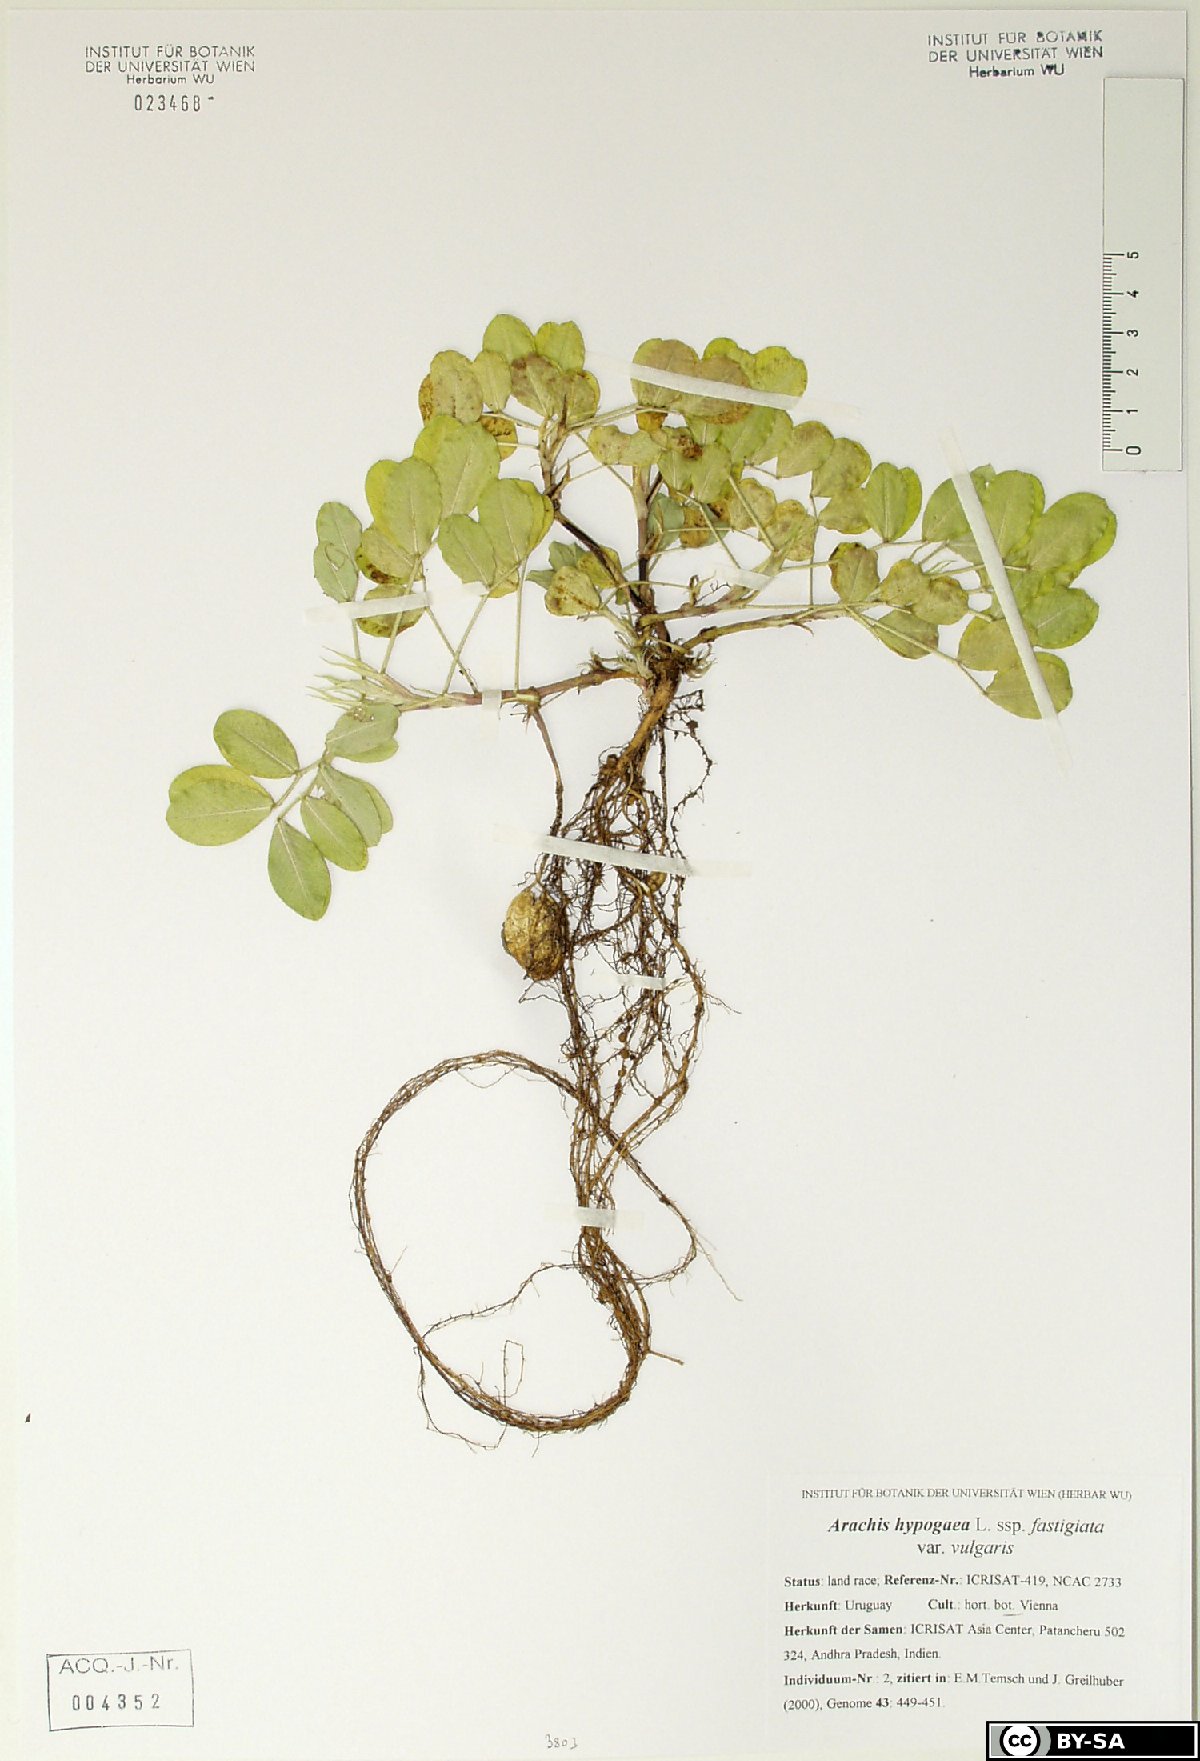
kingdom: Plantae
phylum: Tracheophyta
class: Magnoliopsida
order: Fabales
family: Fabaceae
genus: Arachis
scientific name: Arachis hypogaea
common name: Peanut
